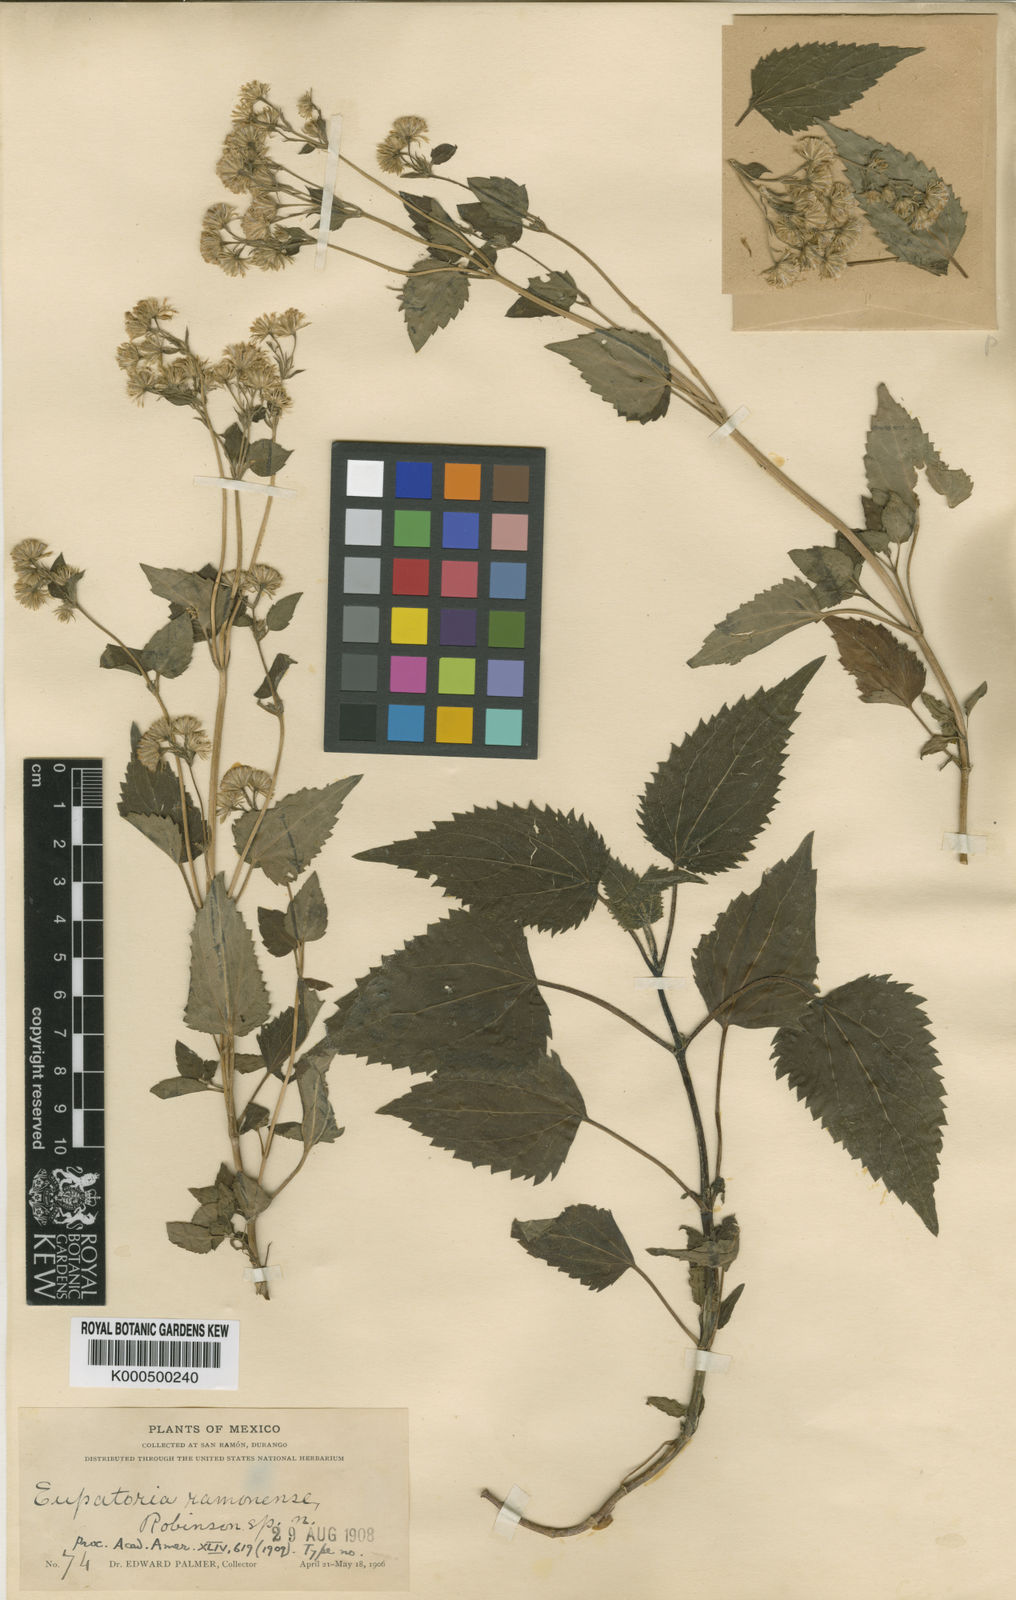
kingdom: Plantae
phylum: Tracheophyta
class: Magnoliopsida
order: Asterales
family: Asteraceae
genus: Ageratina
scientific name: Ageratina ramonensis
